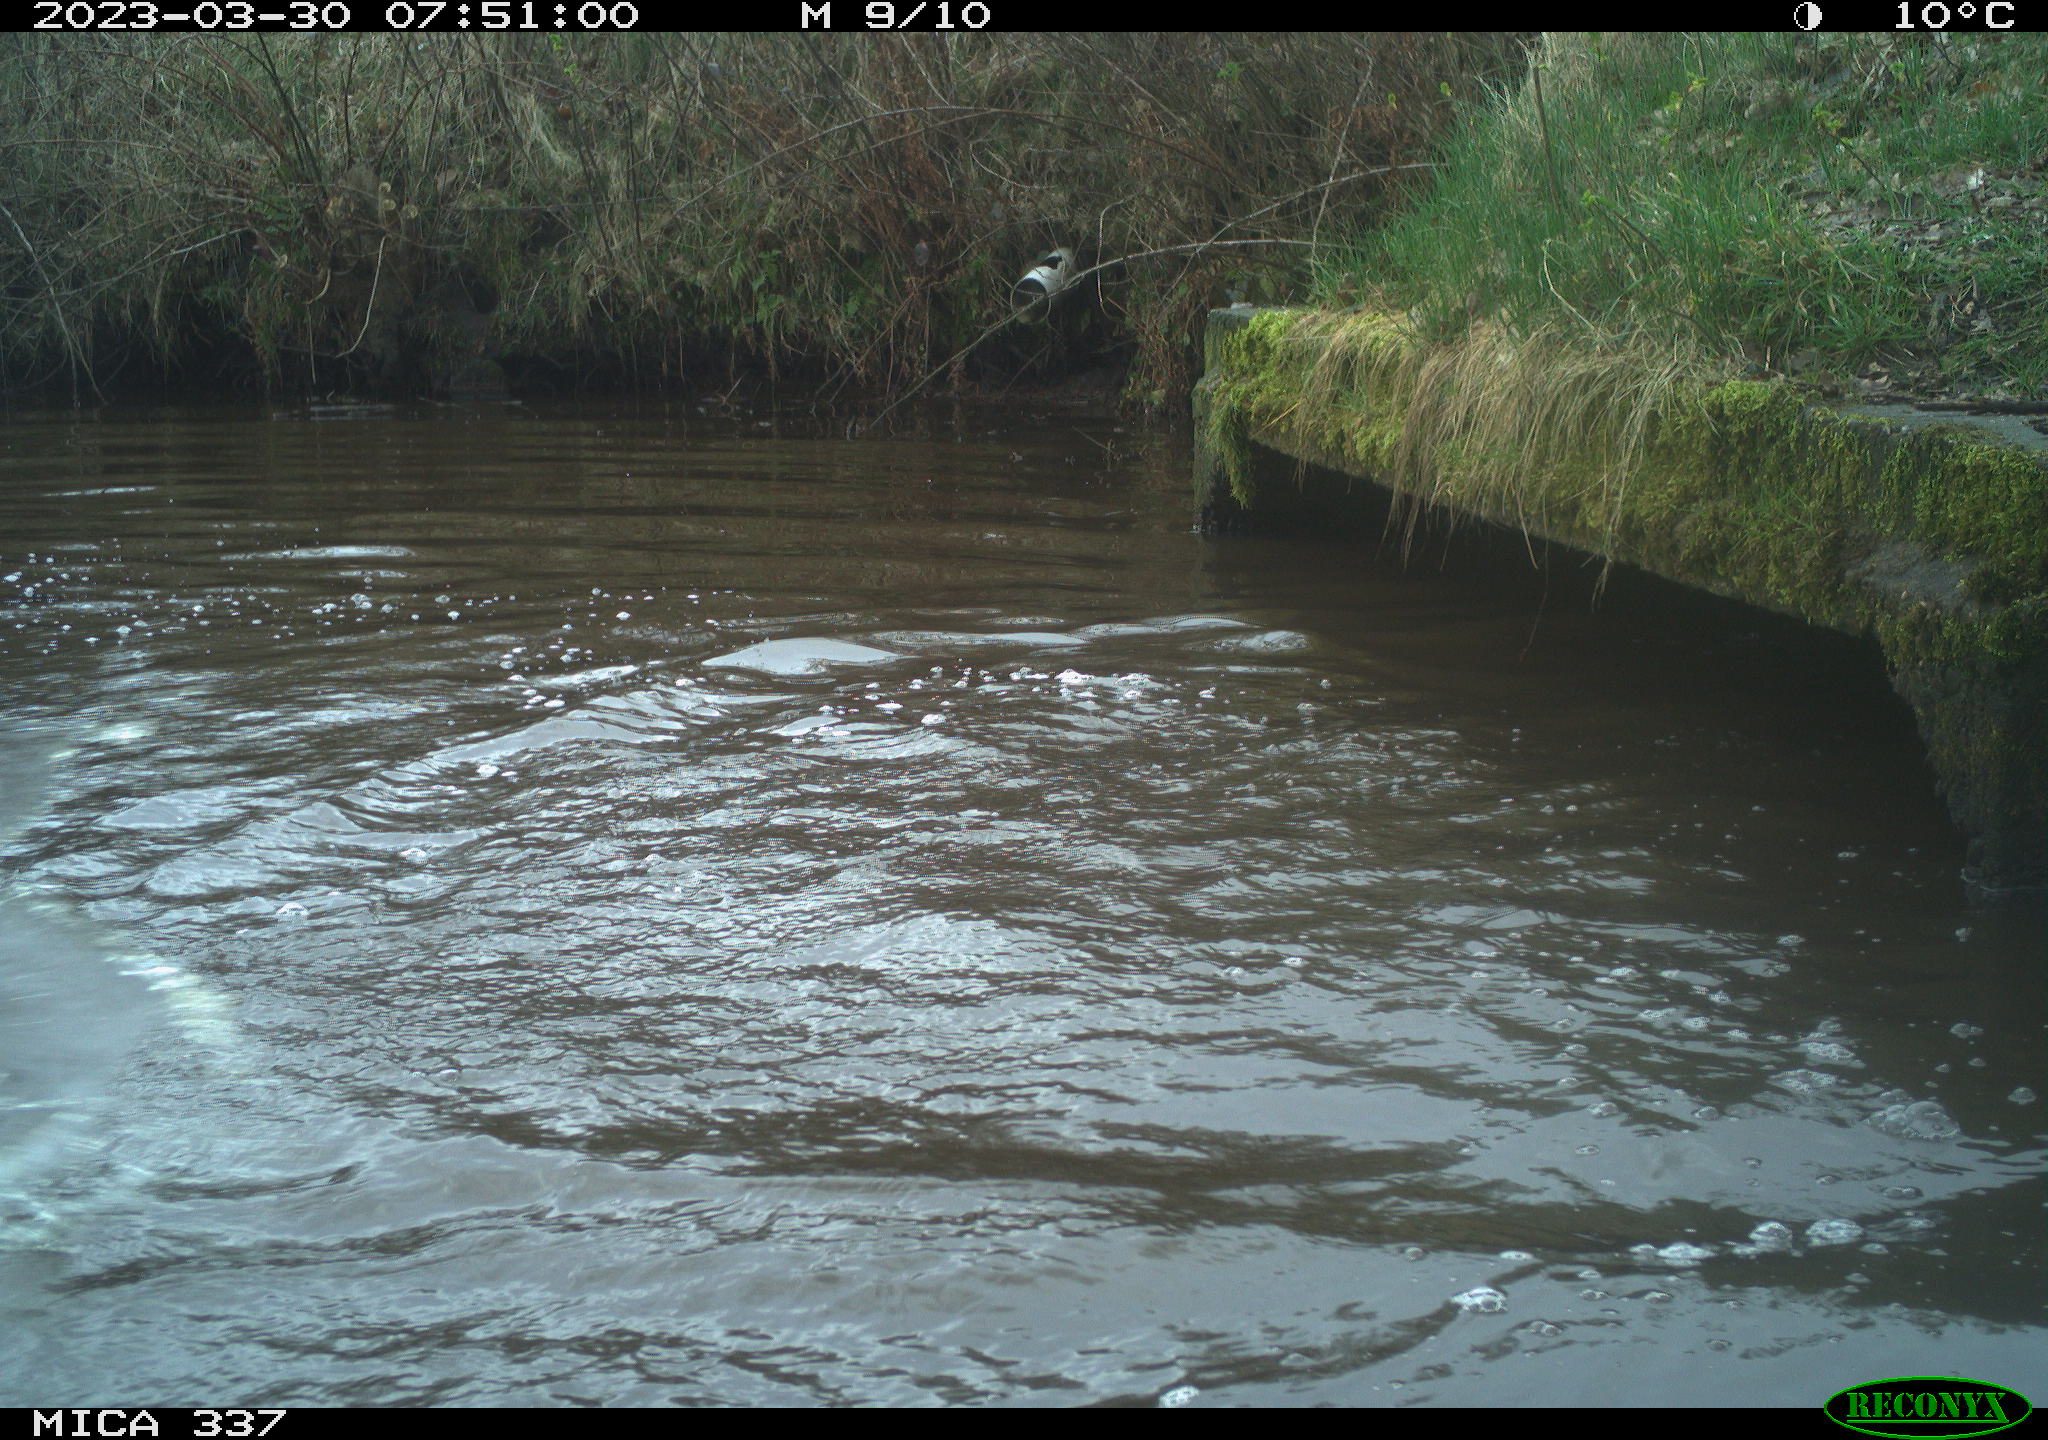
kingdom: Animalia
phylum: Chordata
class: Aves
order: Anseriformes
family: Anatidae
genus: Anas
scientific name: Anas
